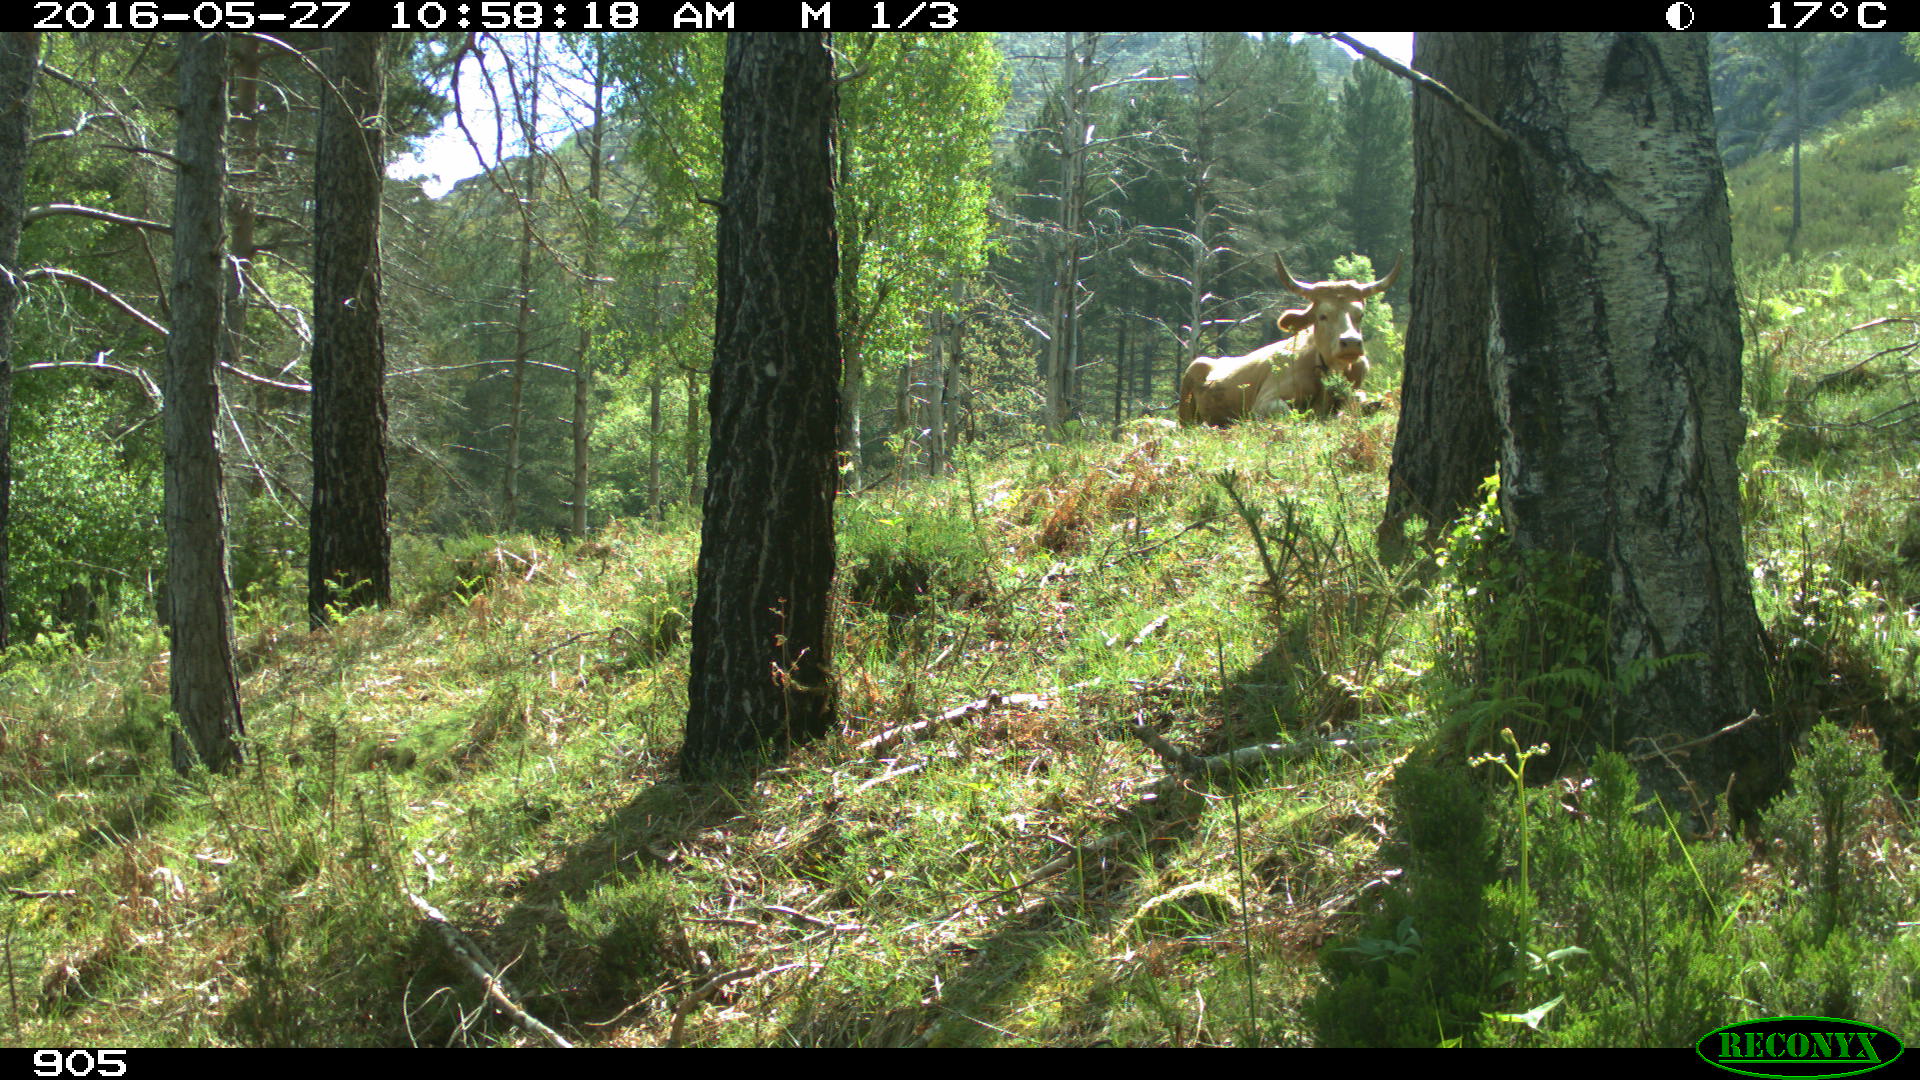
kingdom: Animalia
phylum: Chordata
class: Mammalia
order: Artiodactyla
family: Bovidae
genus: Bos
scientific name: Bos taurus
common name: Domesticated cattle
